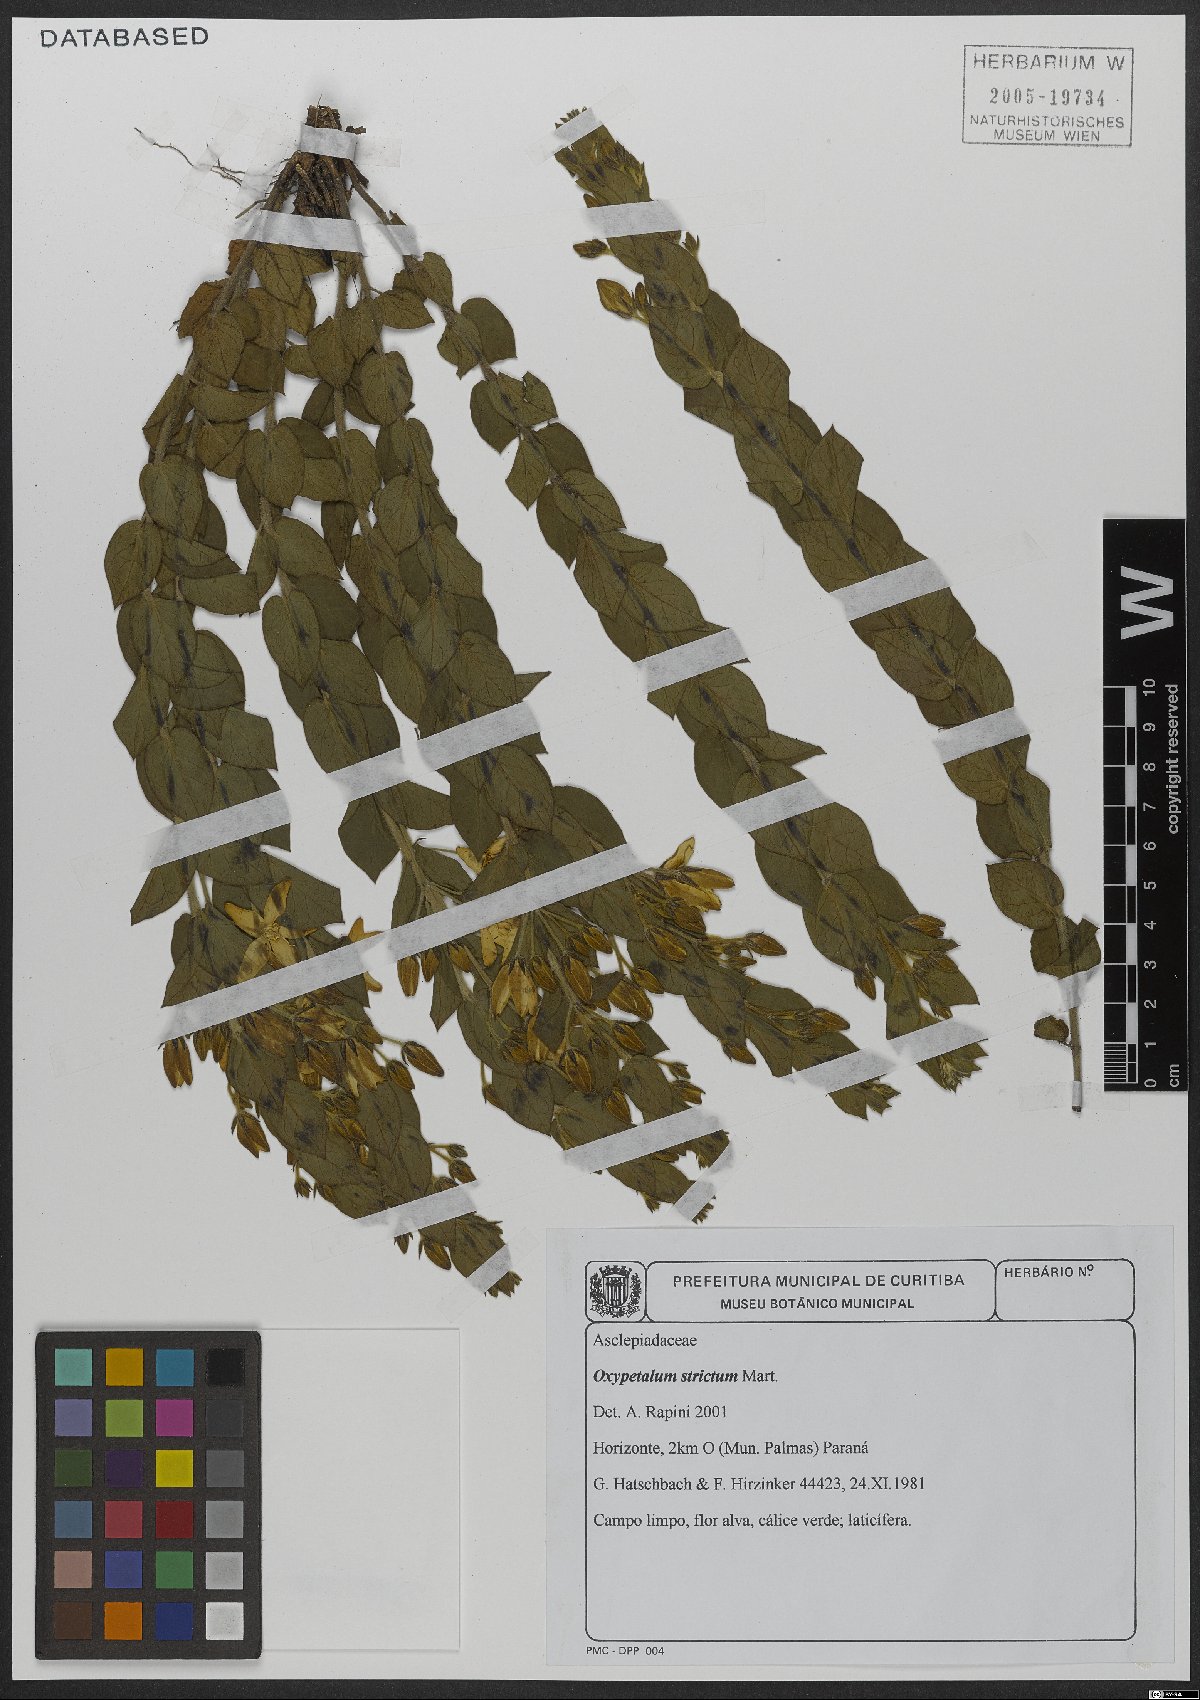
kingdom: Plantae
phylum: Tracheophyta
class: Magnoliopsida
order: Gentianales
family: Apocynaceae
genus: Oxypetalum
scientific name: Oxypetalum strictum
